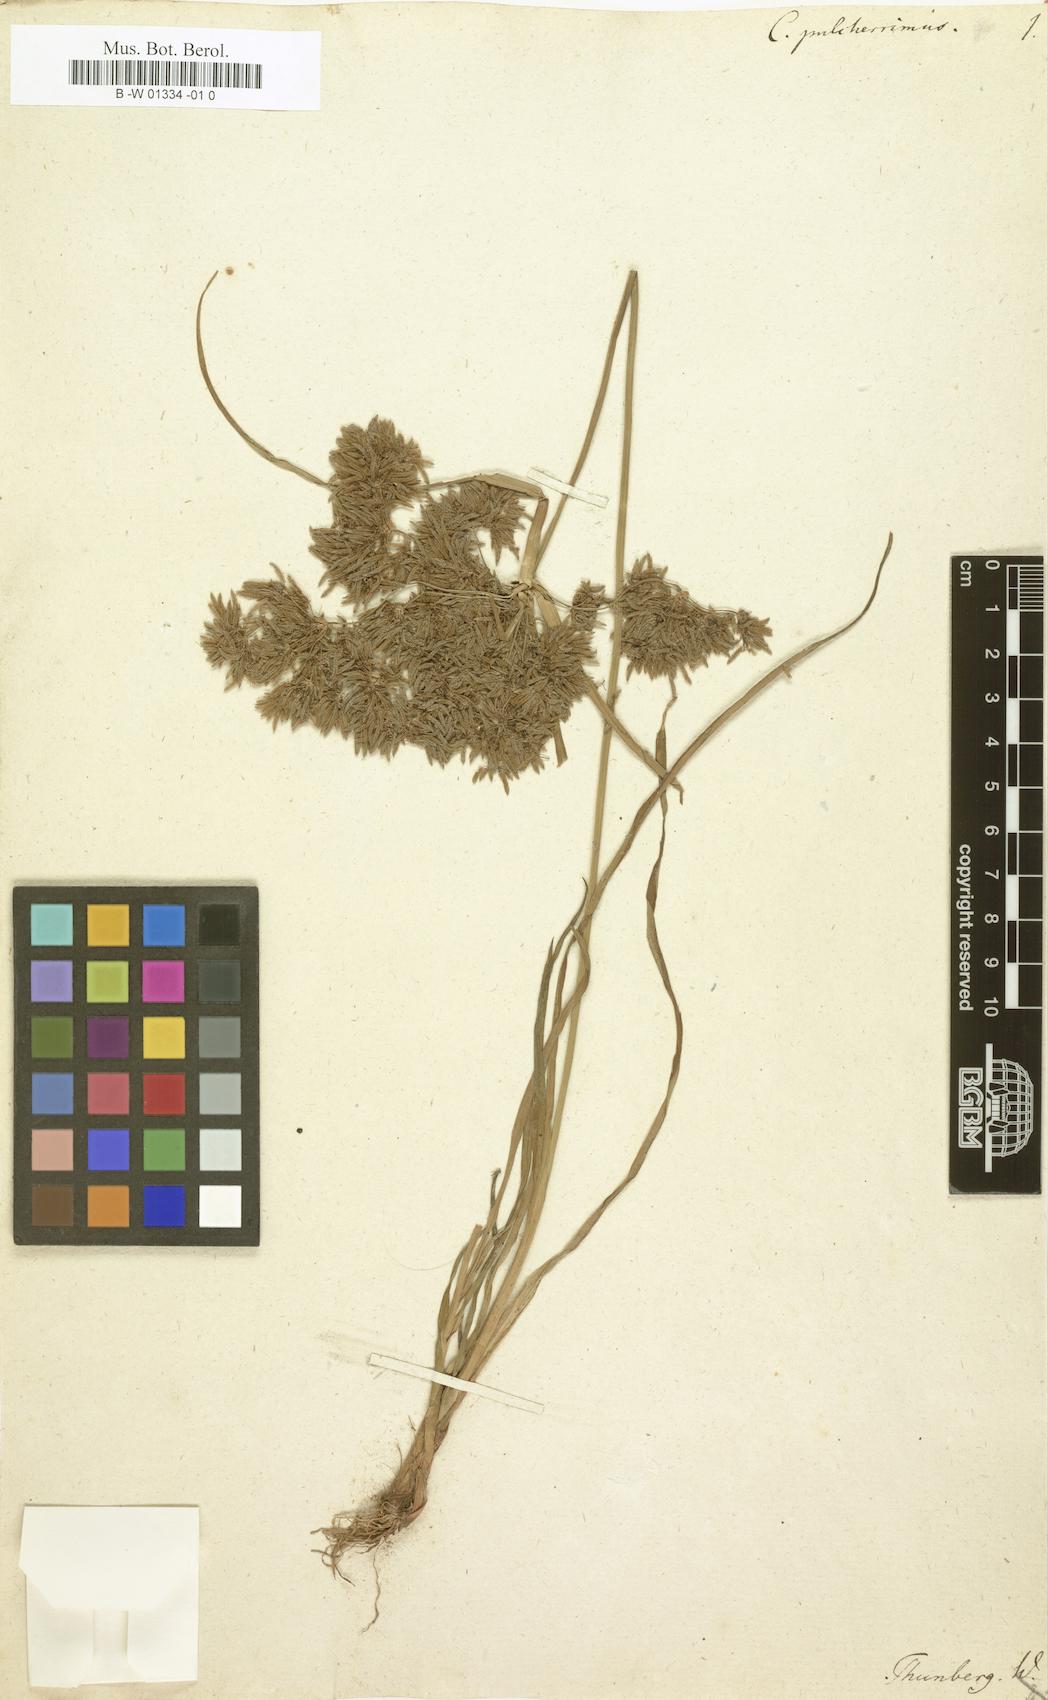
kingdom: Plantae
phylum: Tracheophyta
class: Liliopsida
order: Poales
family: Cyperaceae
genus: Cyperus
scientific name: Cyperus pulcherrimus
